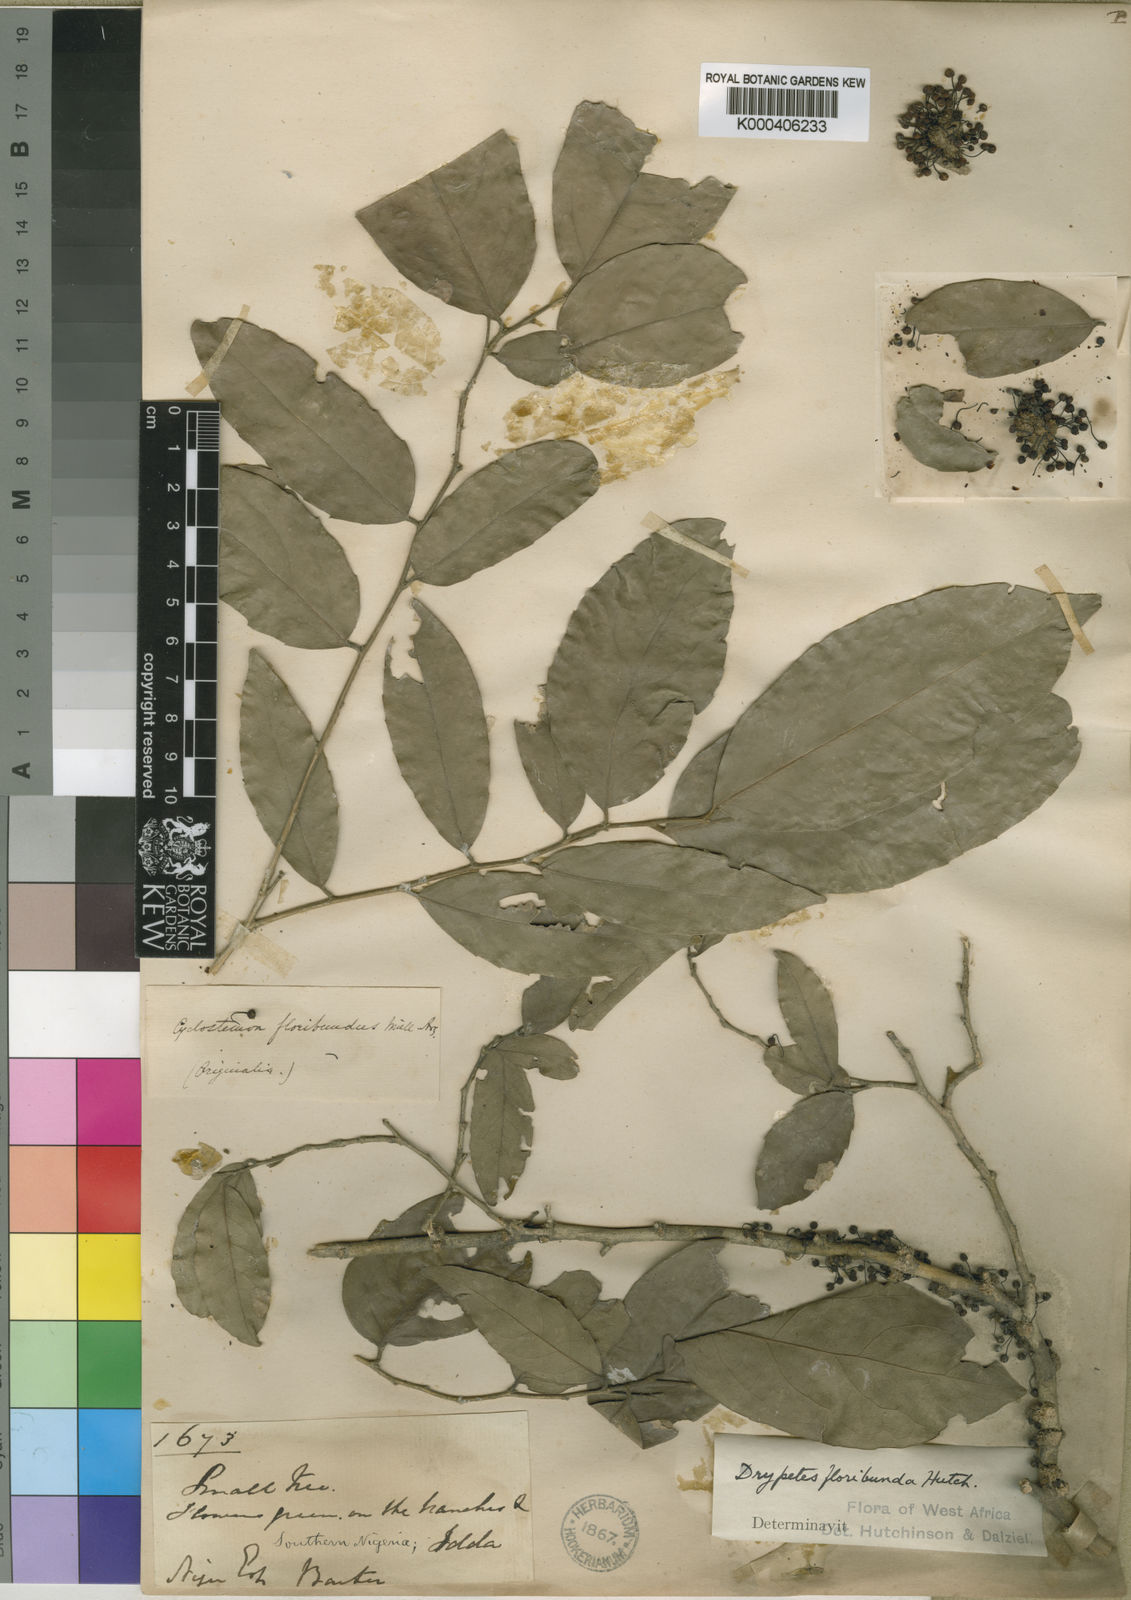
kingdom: Plantae
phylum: Tracheophyta
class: Magnoliopsida
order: Malpighiales
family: Putranjivaceae
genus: Drypetes
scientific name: Drypetes
